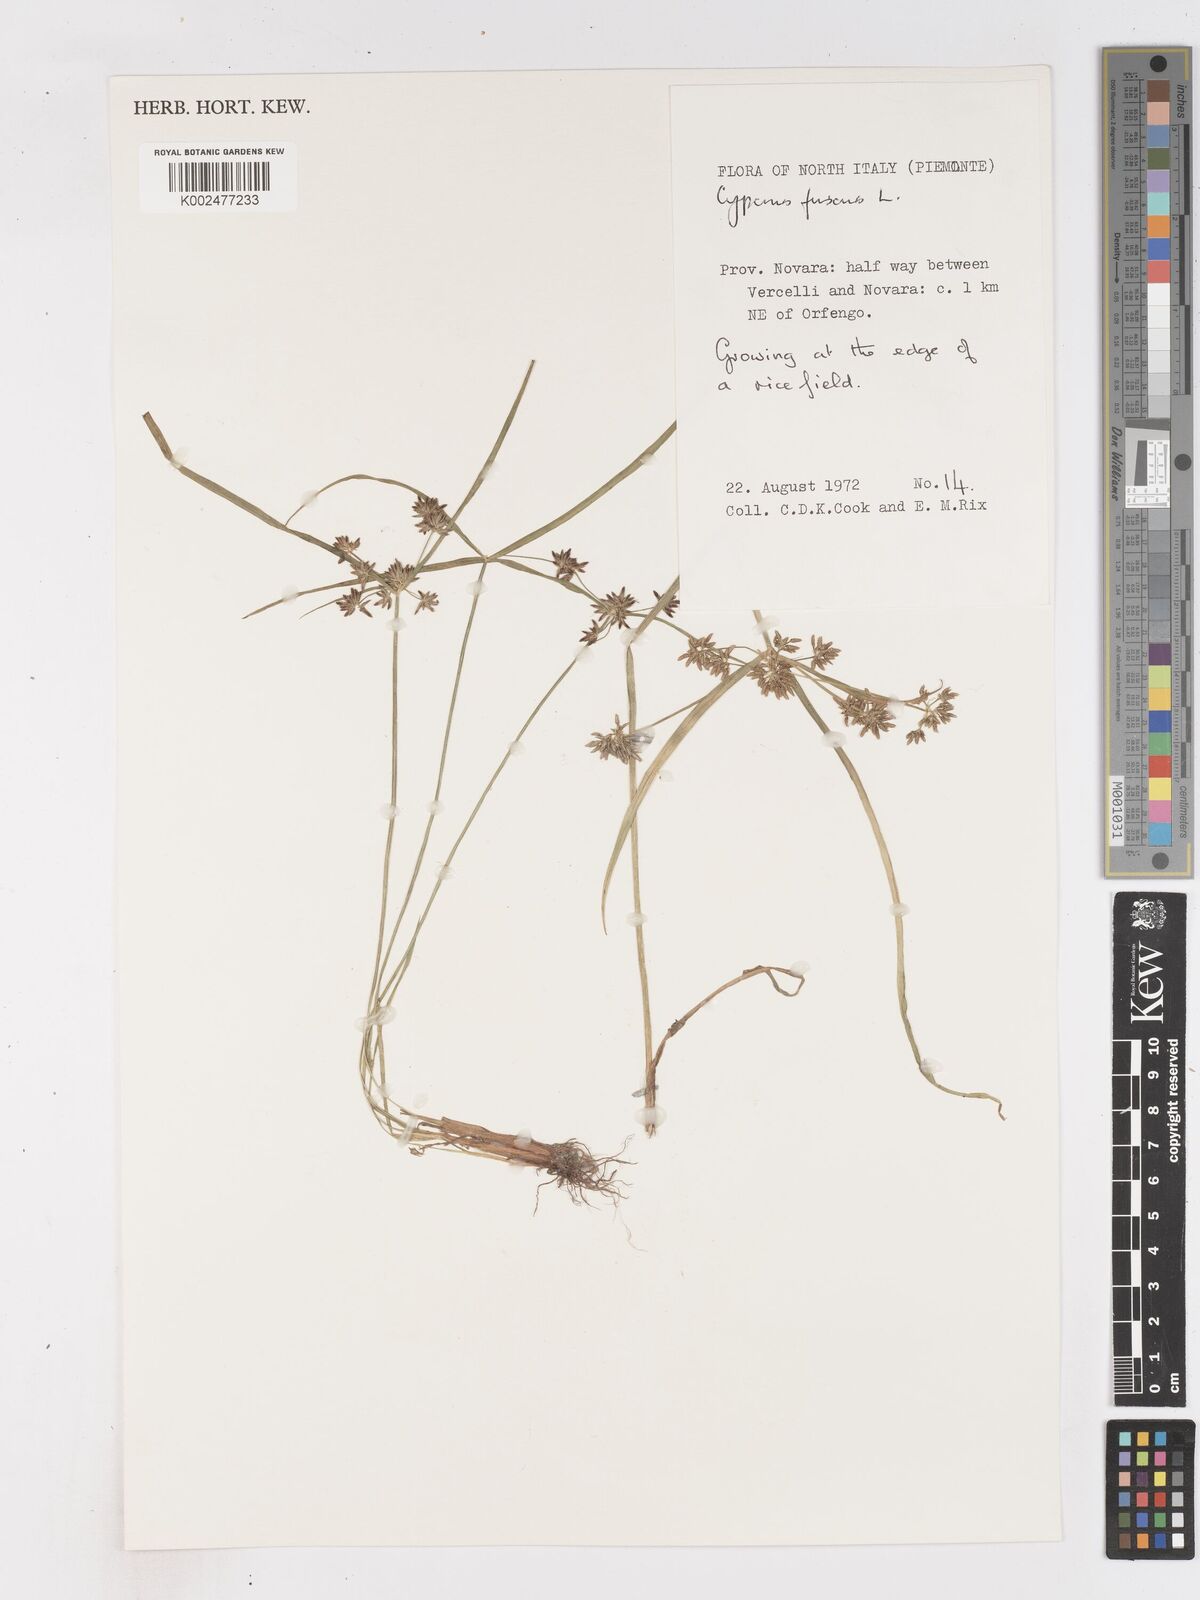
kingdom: Plantae
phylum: Tracheophyta
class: Liliopsida
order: Poales
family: Cyperaceae
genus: Cyperus
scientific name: Cyperus fuscus
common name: Brown galingale
